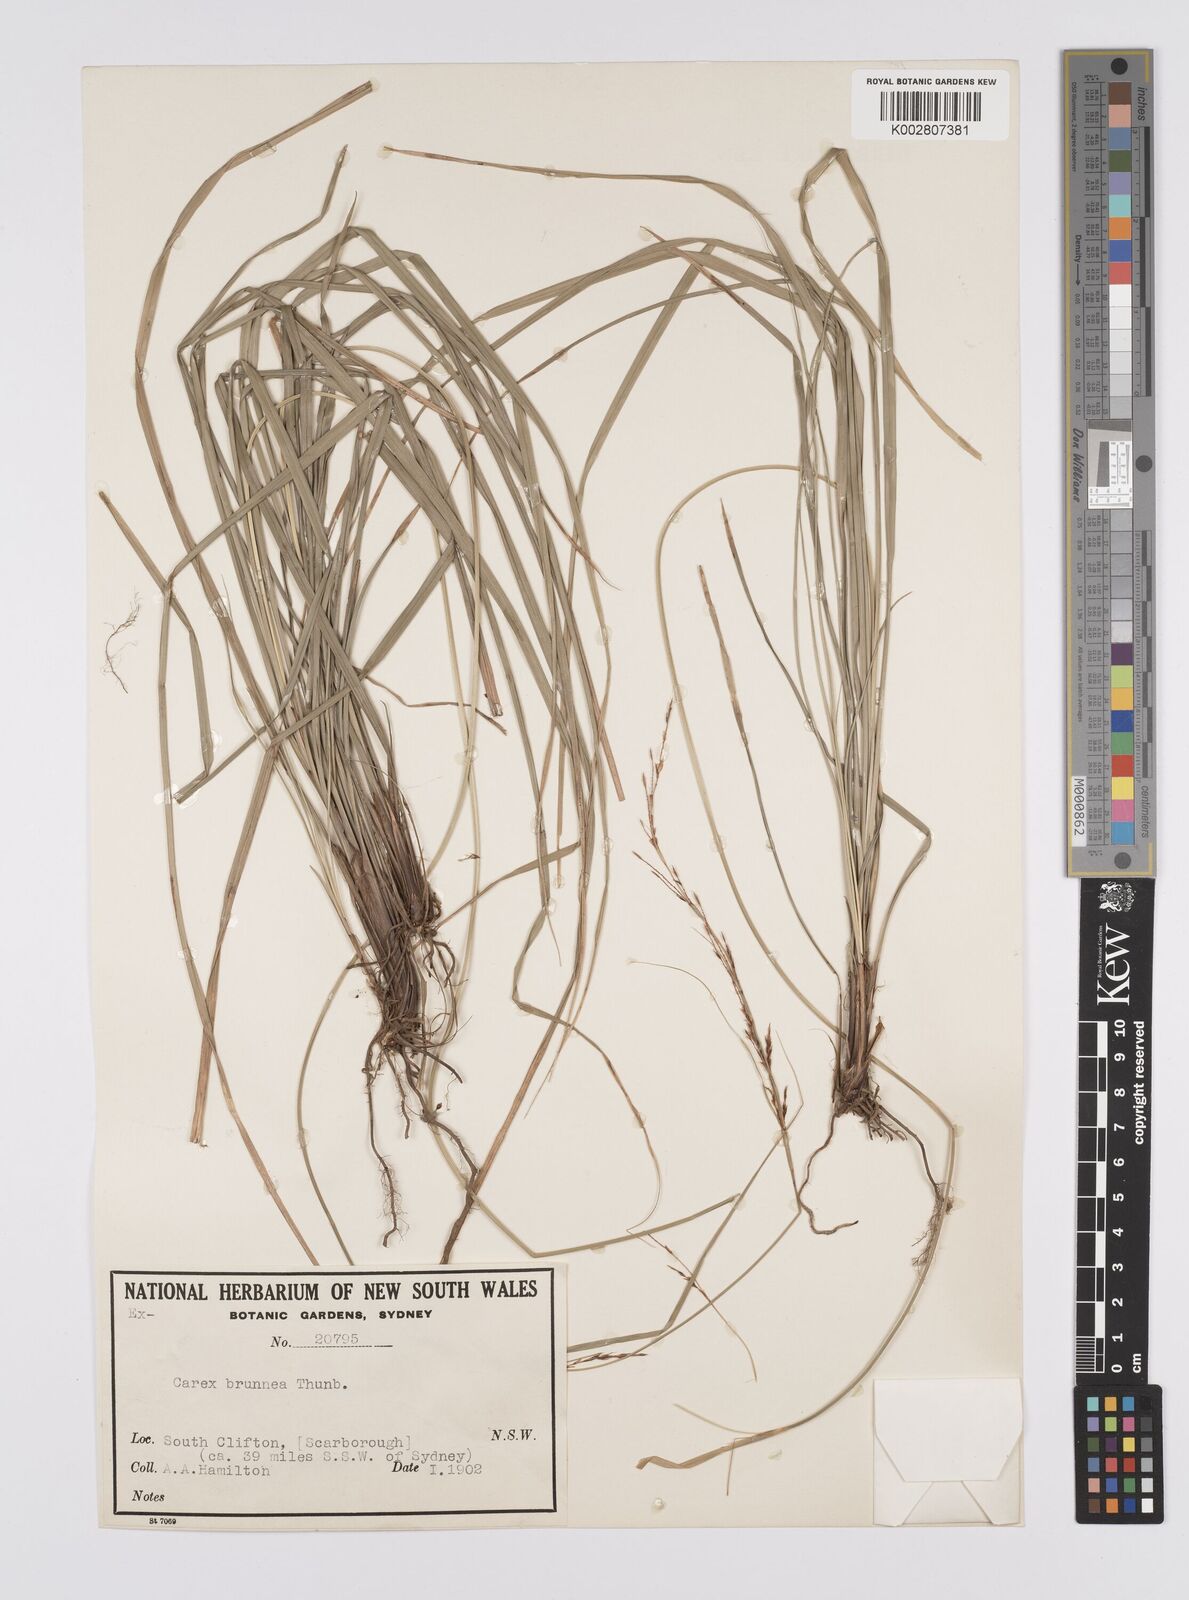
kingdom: Plantae
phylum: Tracheophyta
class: Liliopsida
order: Poales
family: Cyperaceae
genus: Carex
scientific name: Carex brunnea
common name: Greater brown sedge
